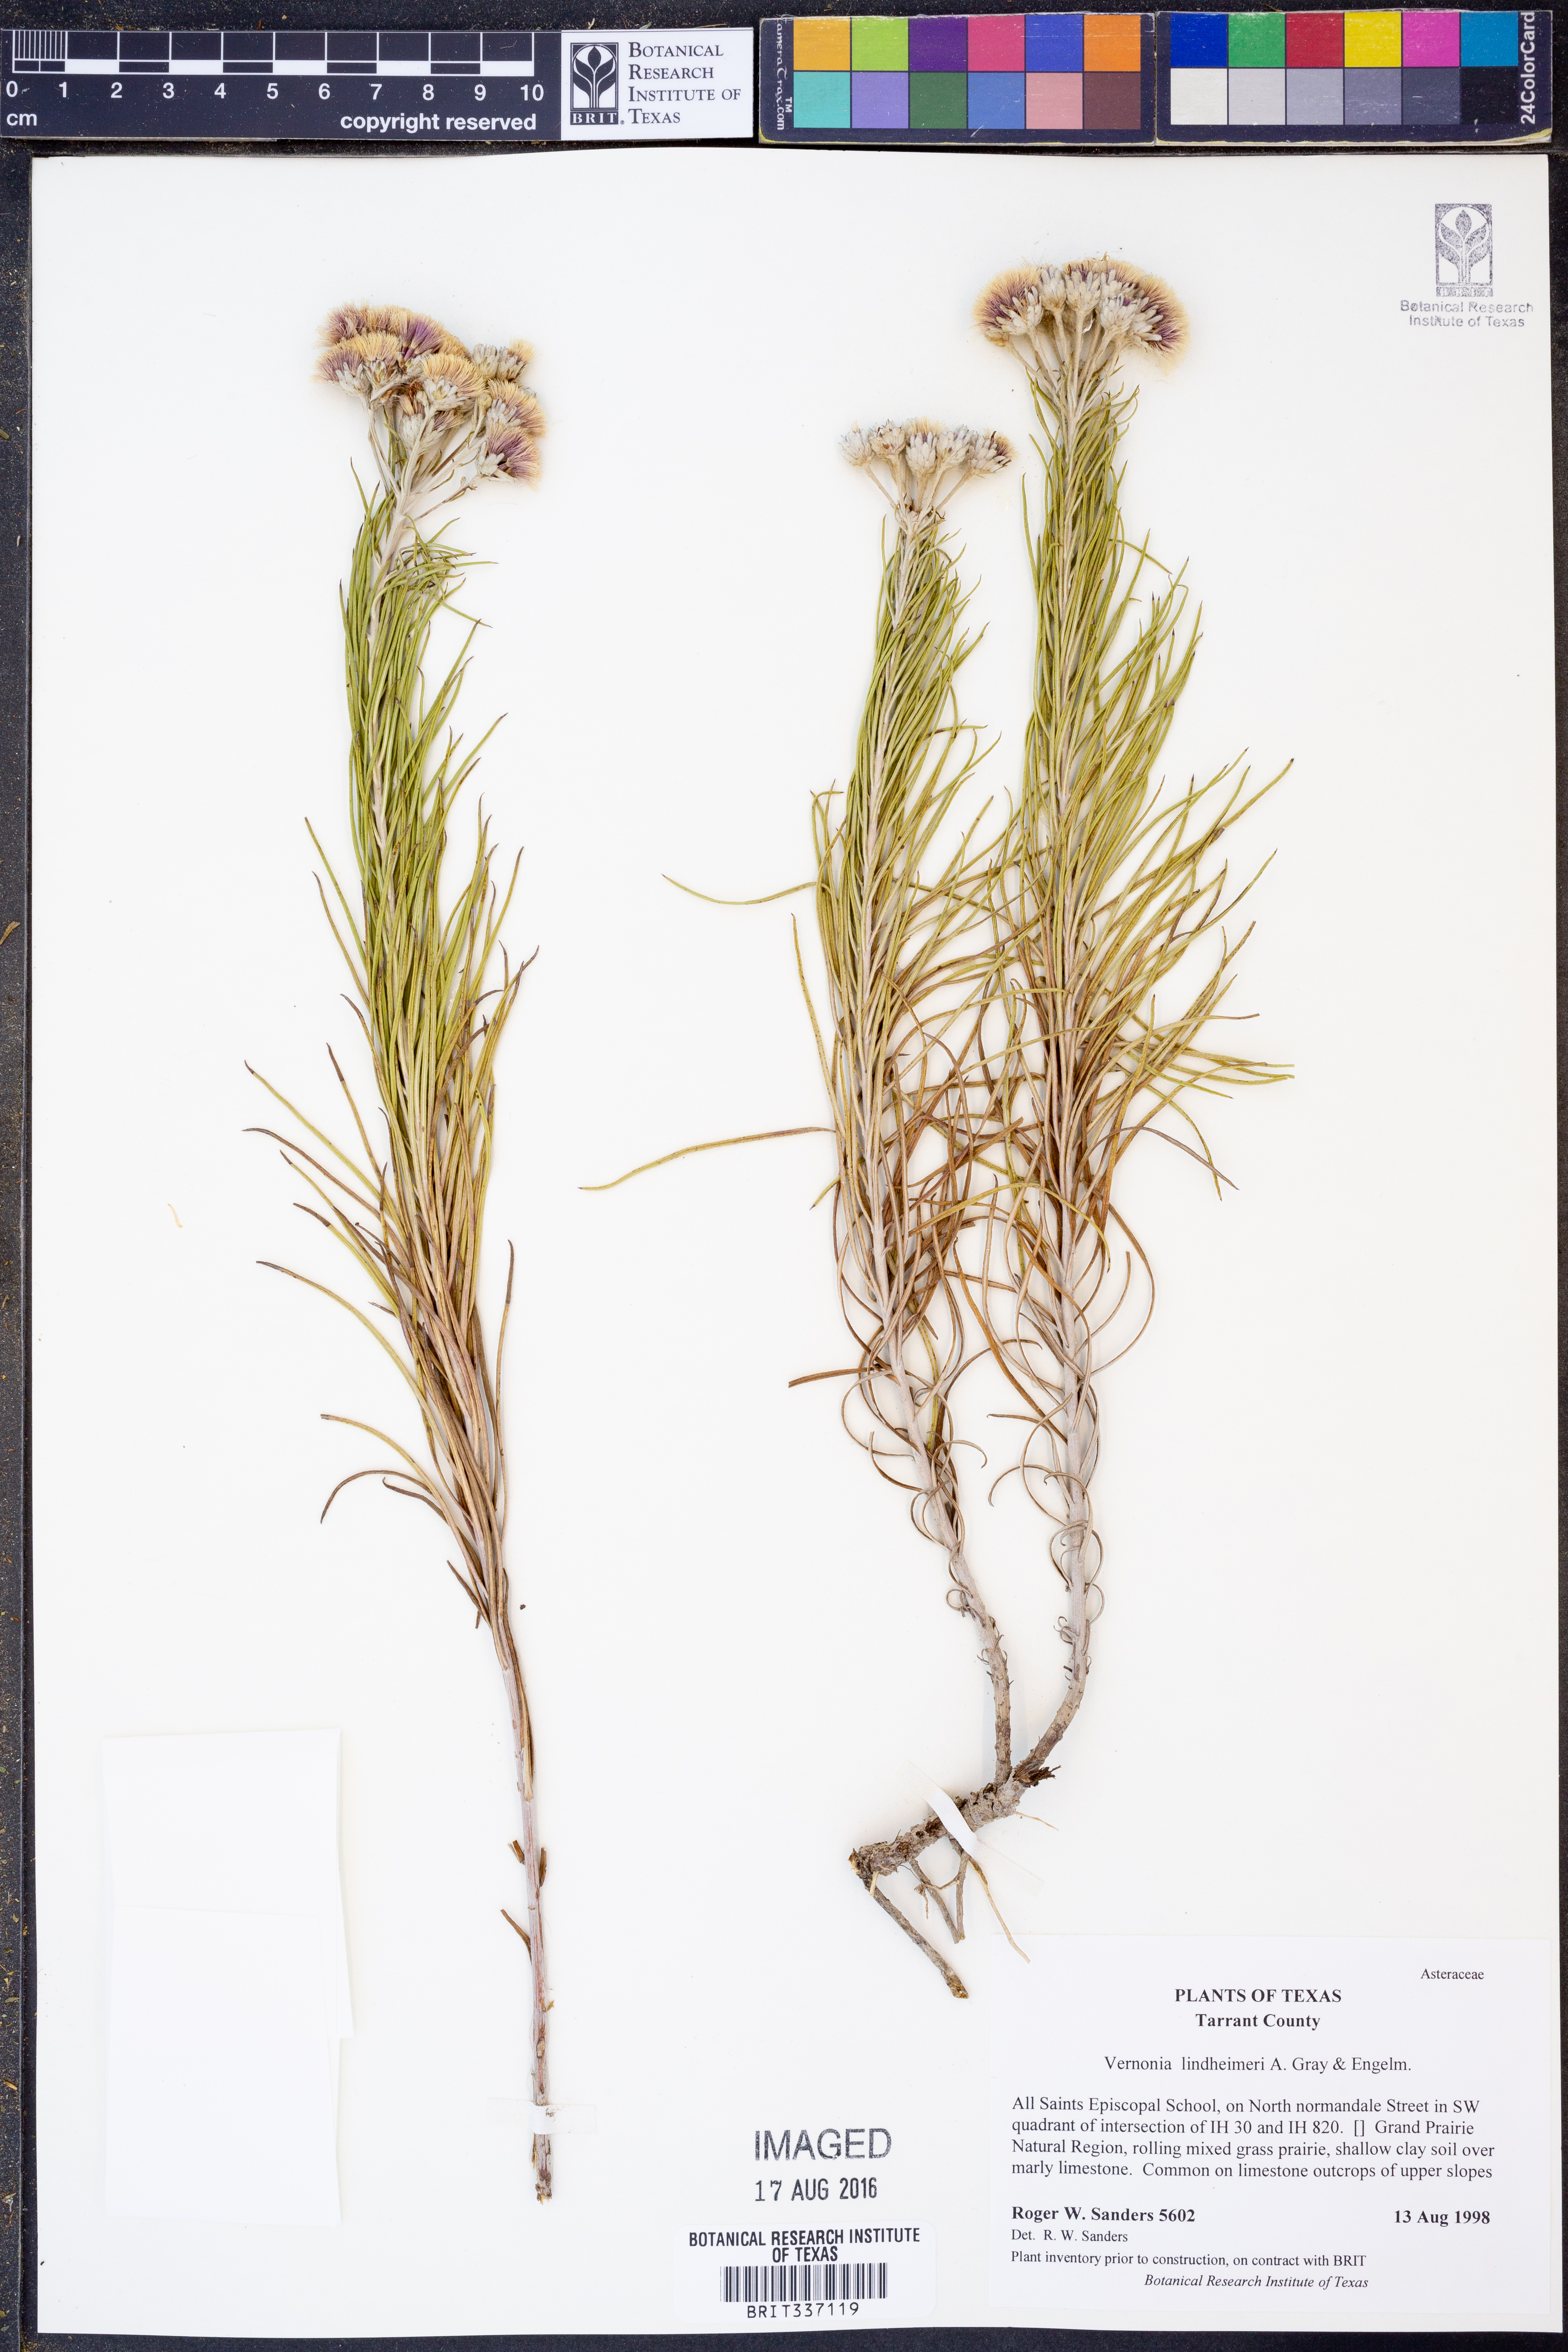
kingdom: Plantae
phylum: Tracheophyta
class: Magnoliopsida
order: Asterales
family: Asteraceae
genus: Vernonia
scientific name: Vernonia lindheimeri
